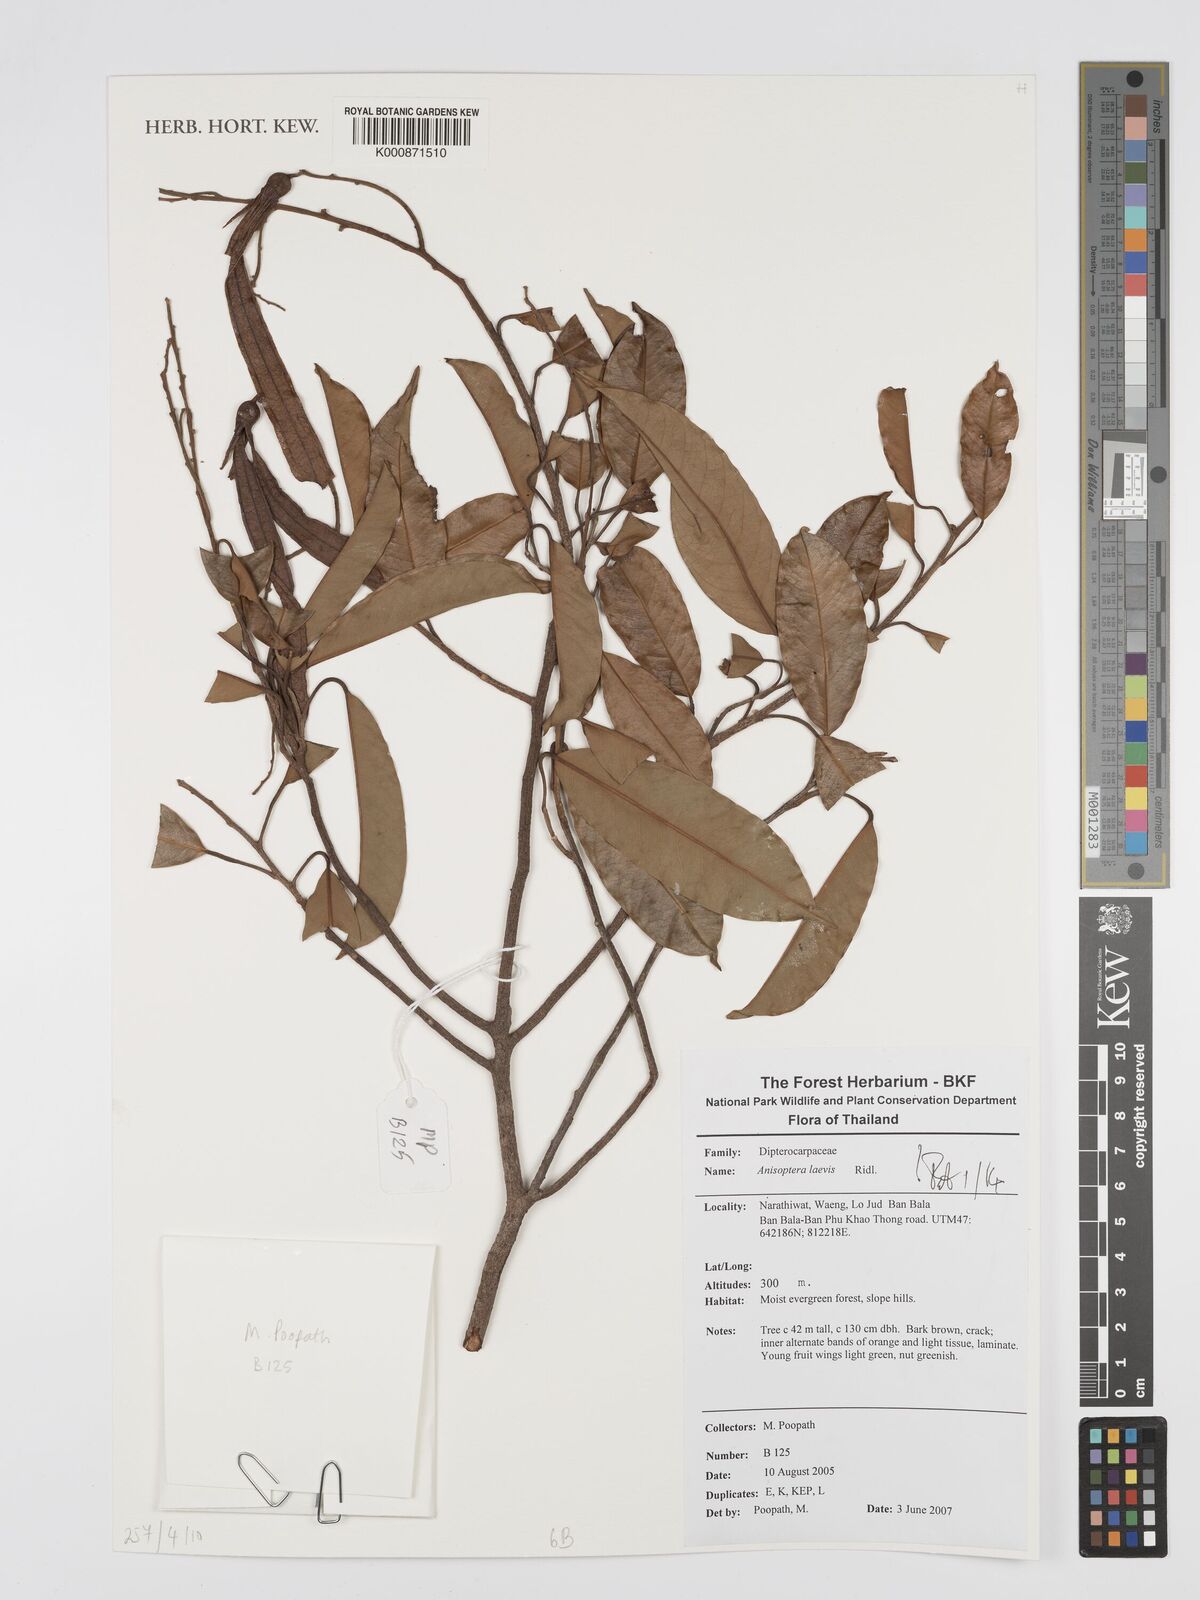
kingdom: Plantae
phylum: Tracheophyta
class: Magnoliopsida
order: Malvales
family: Dipterocarpaceae
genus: Anisoptera
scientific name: Anisoptera laevis
